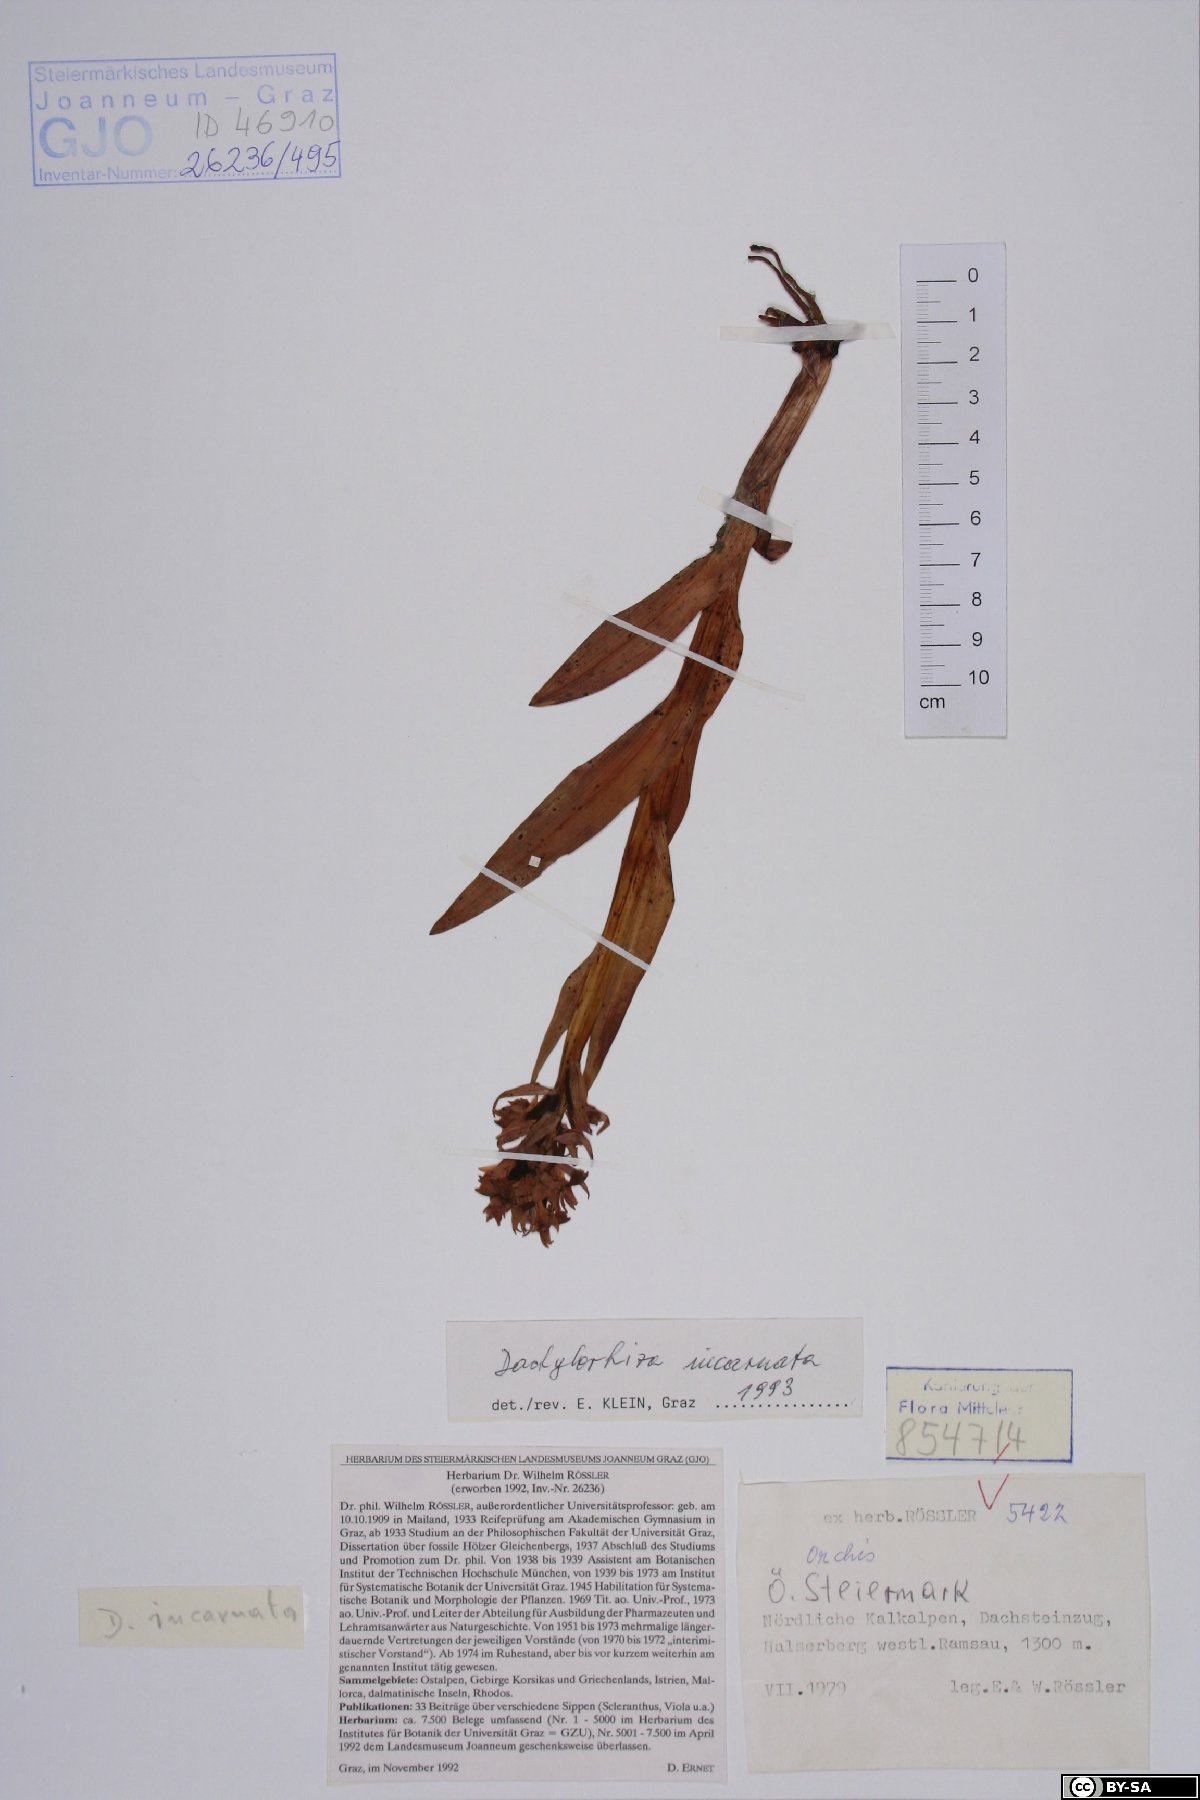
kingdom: Plantae
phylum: Tracheophyta
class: Liliopsida
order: Asparagales
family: Orchidaceae
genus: Dactylorhiza
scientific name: Dactylorhiza incarnata
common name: Early marsh-orchid
